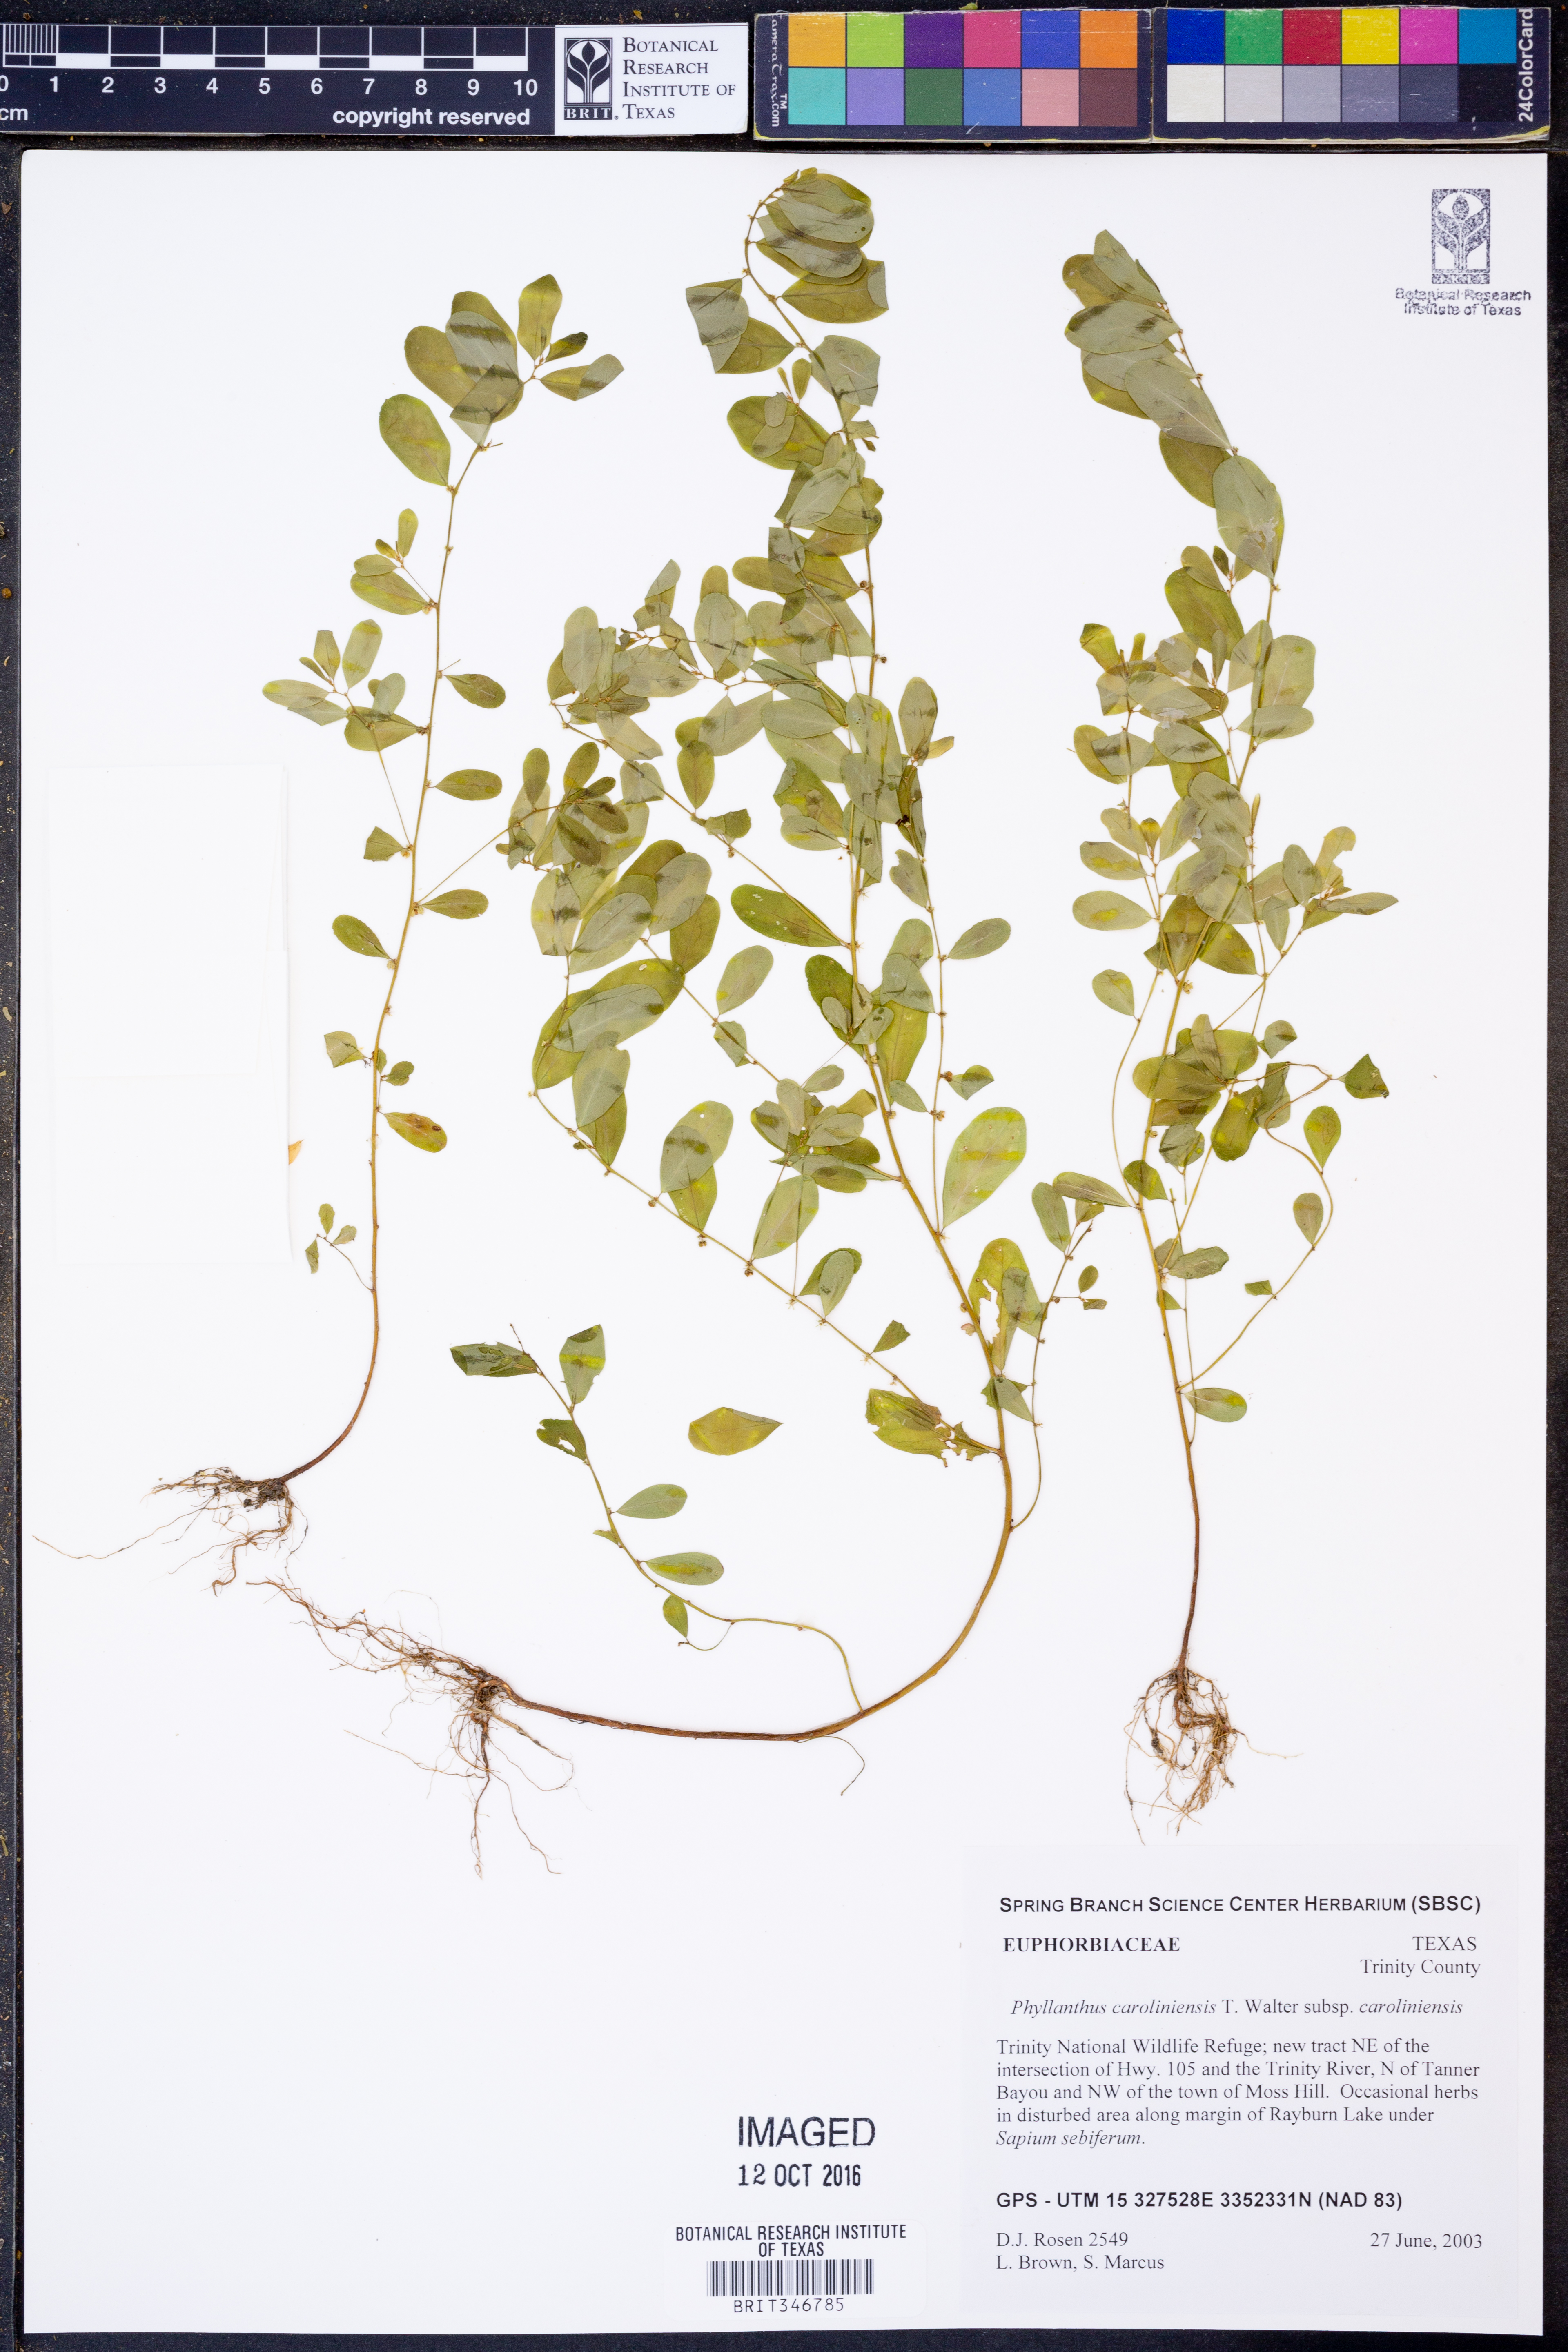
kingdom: Plantae
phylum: Tracheophyta
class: Magnoliopsida
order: Malpighiales
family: Phyllanthaceae
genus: Phyllanthus
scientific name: Phyllanthus caroliniensis
